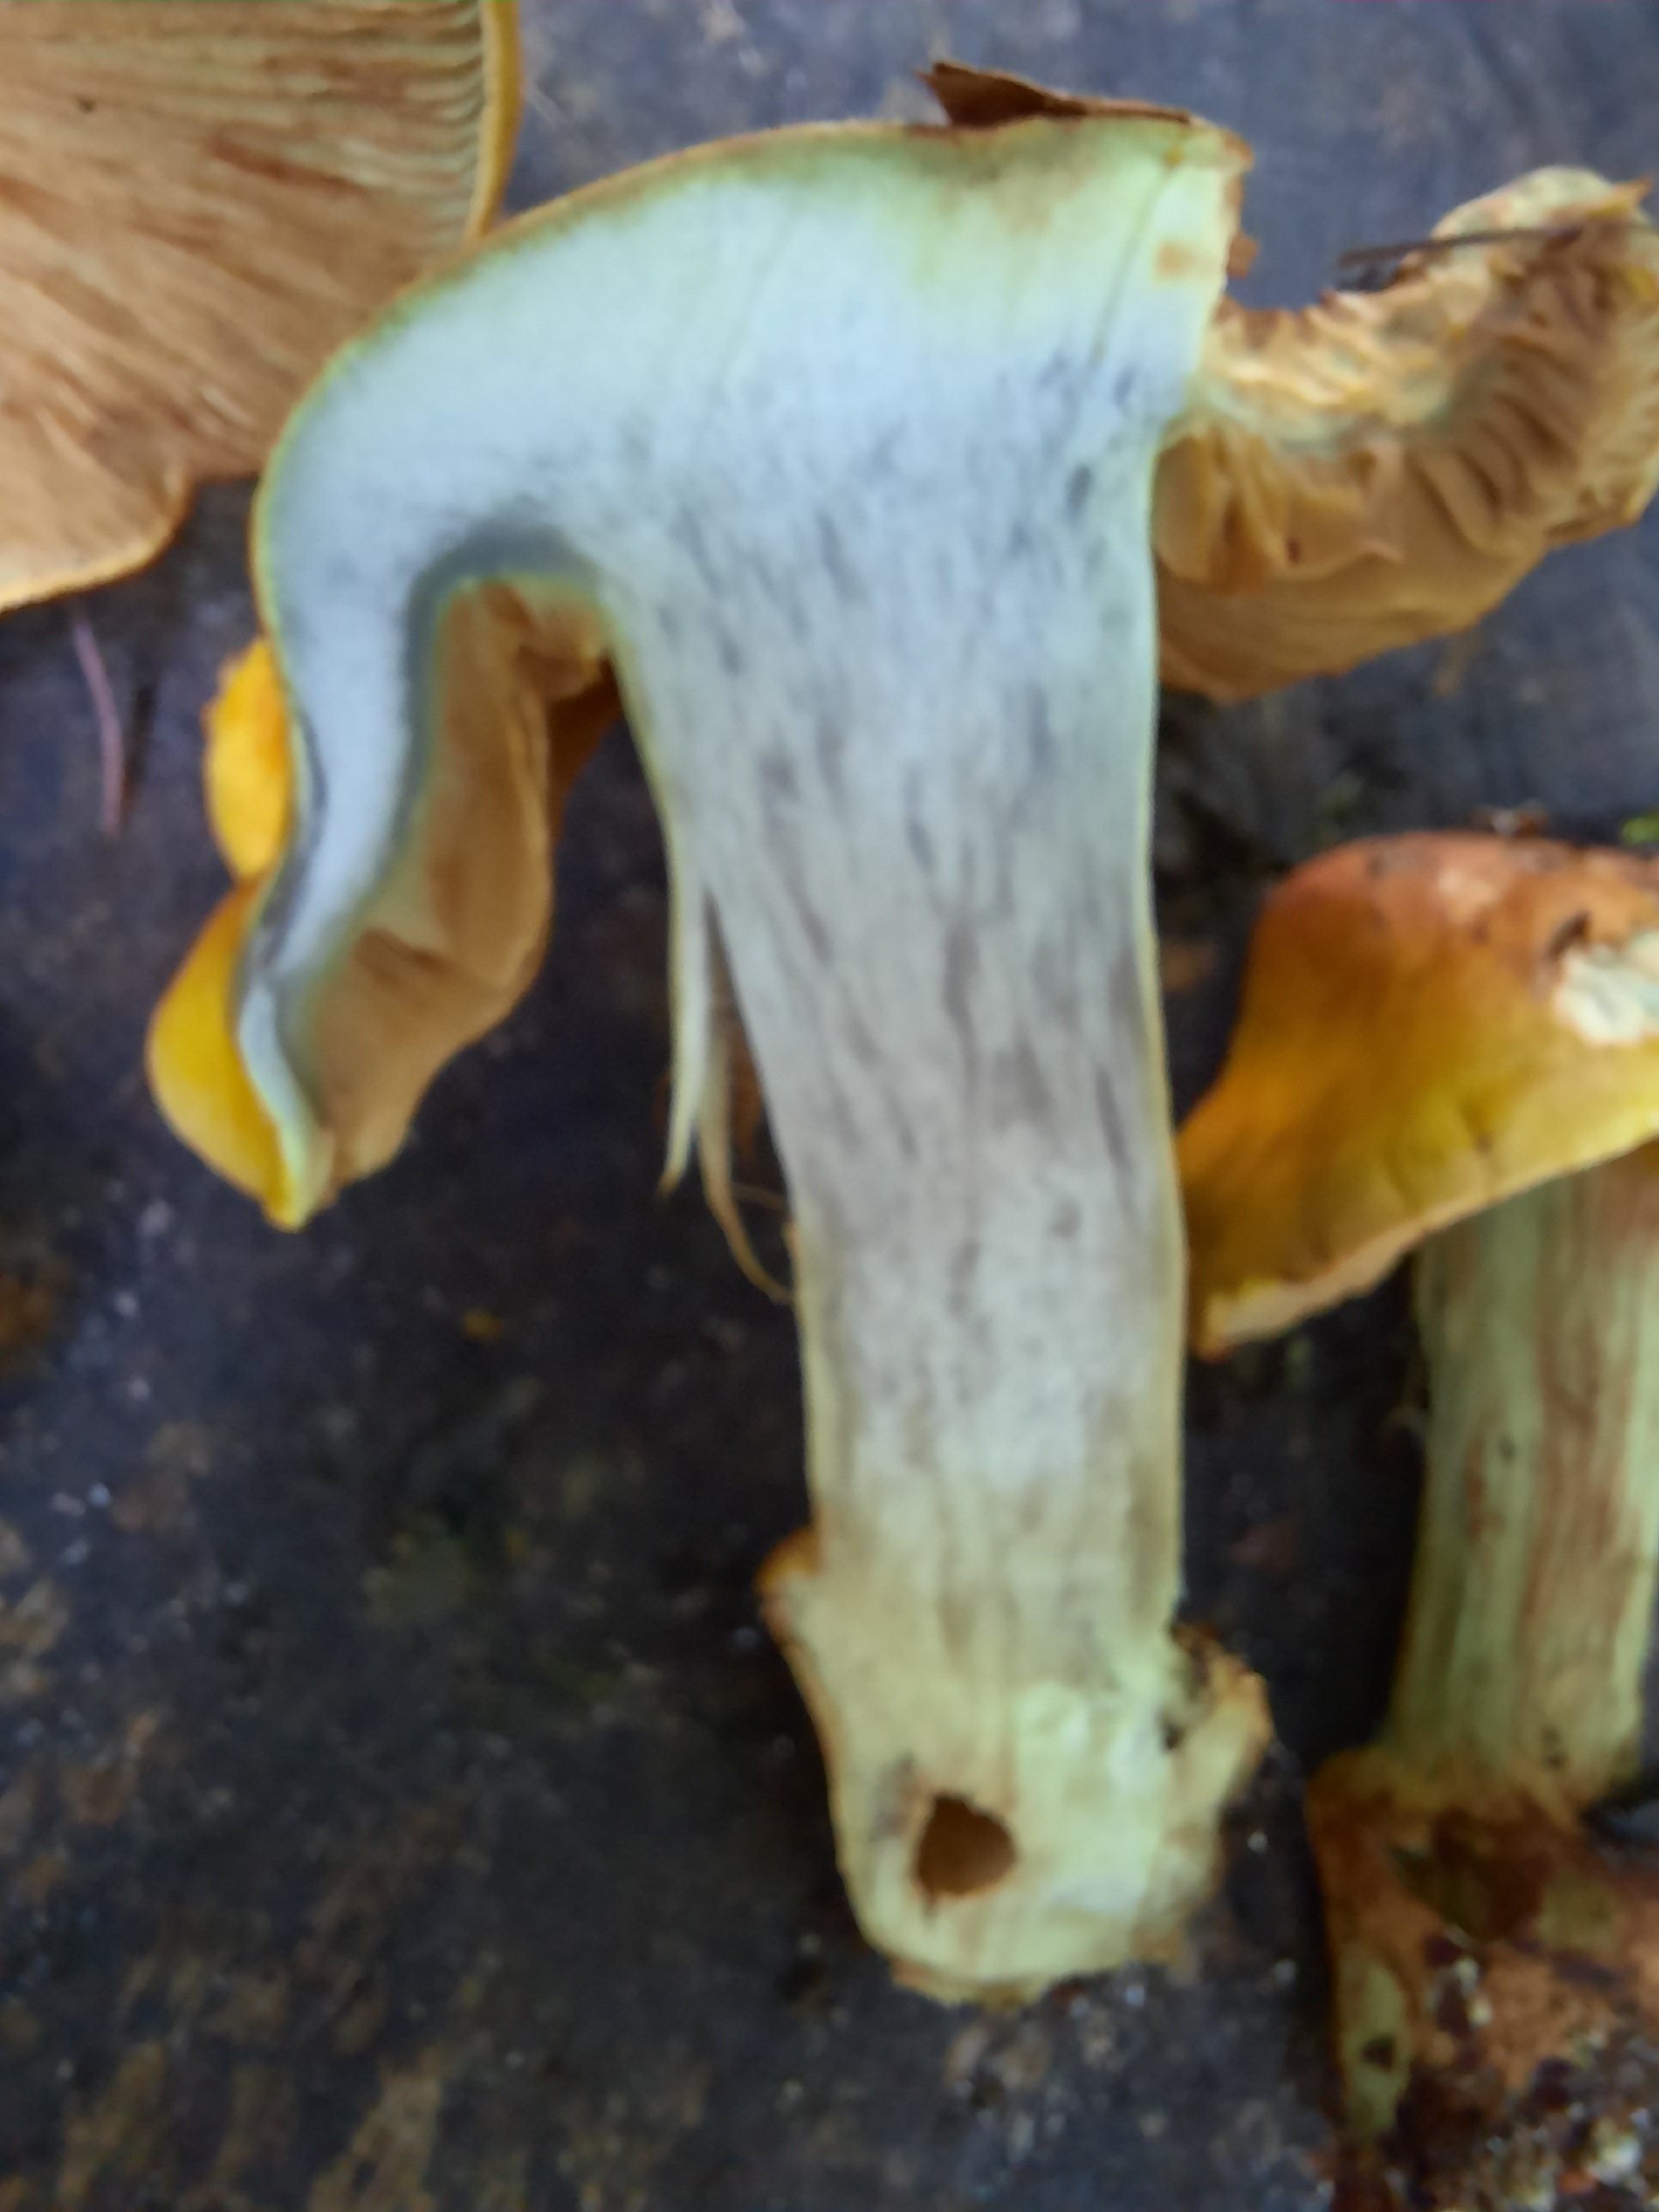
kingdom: Fungi
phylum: Basidiomycota
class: Agaricomycetes
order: Agaricales
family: Cortinariaceae
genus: Cortinarius
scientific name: Cortinarius bergeronii
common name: prægtig slørhat
